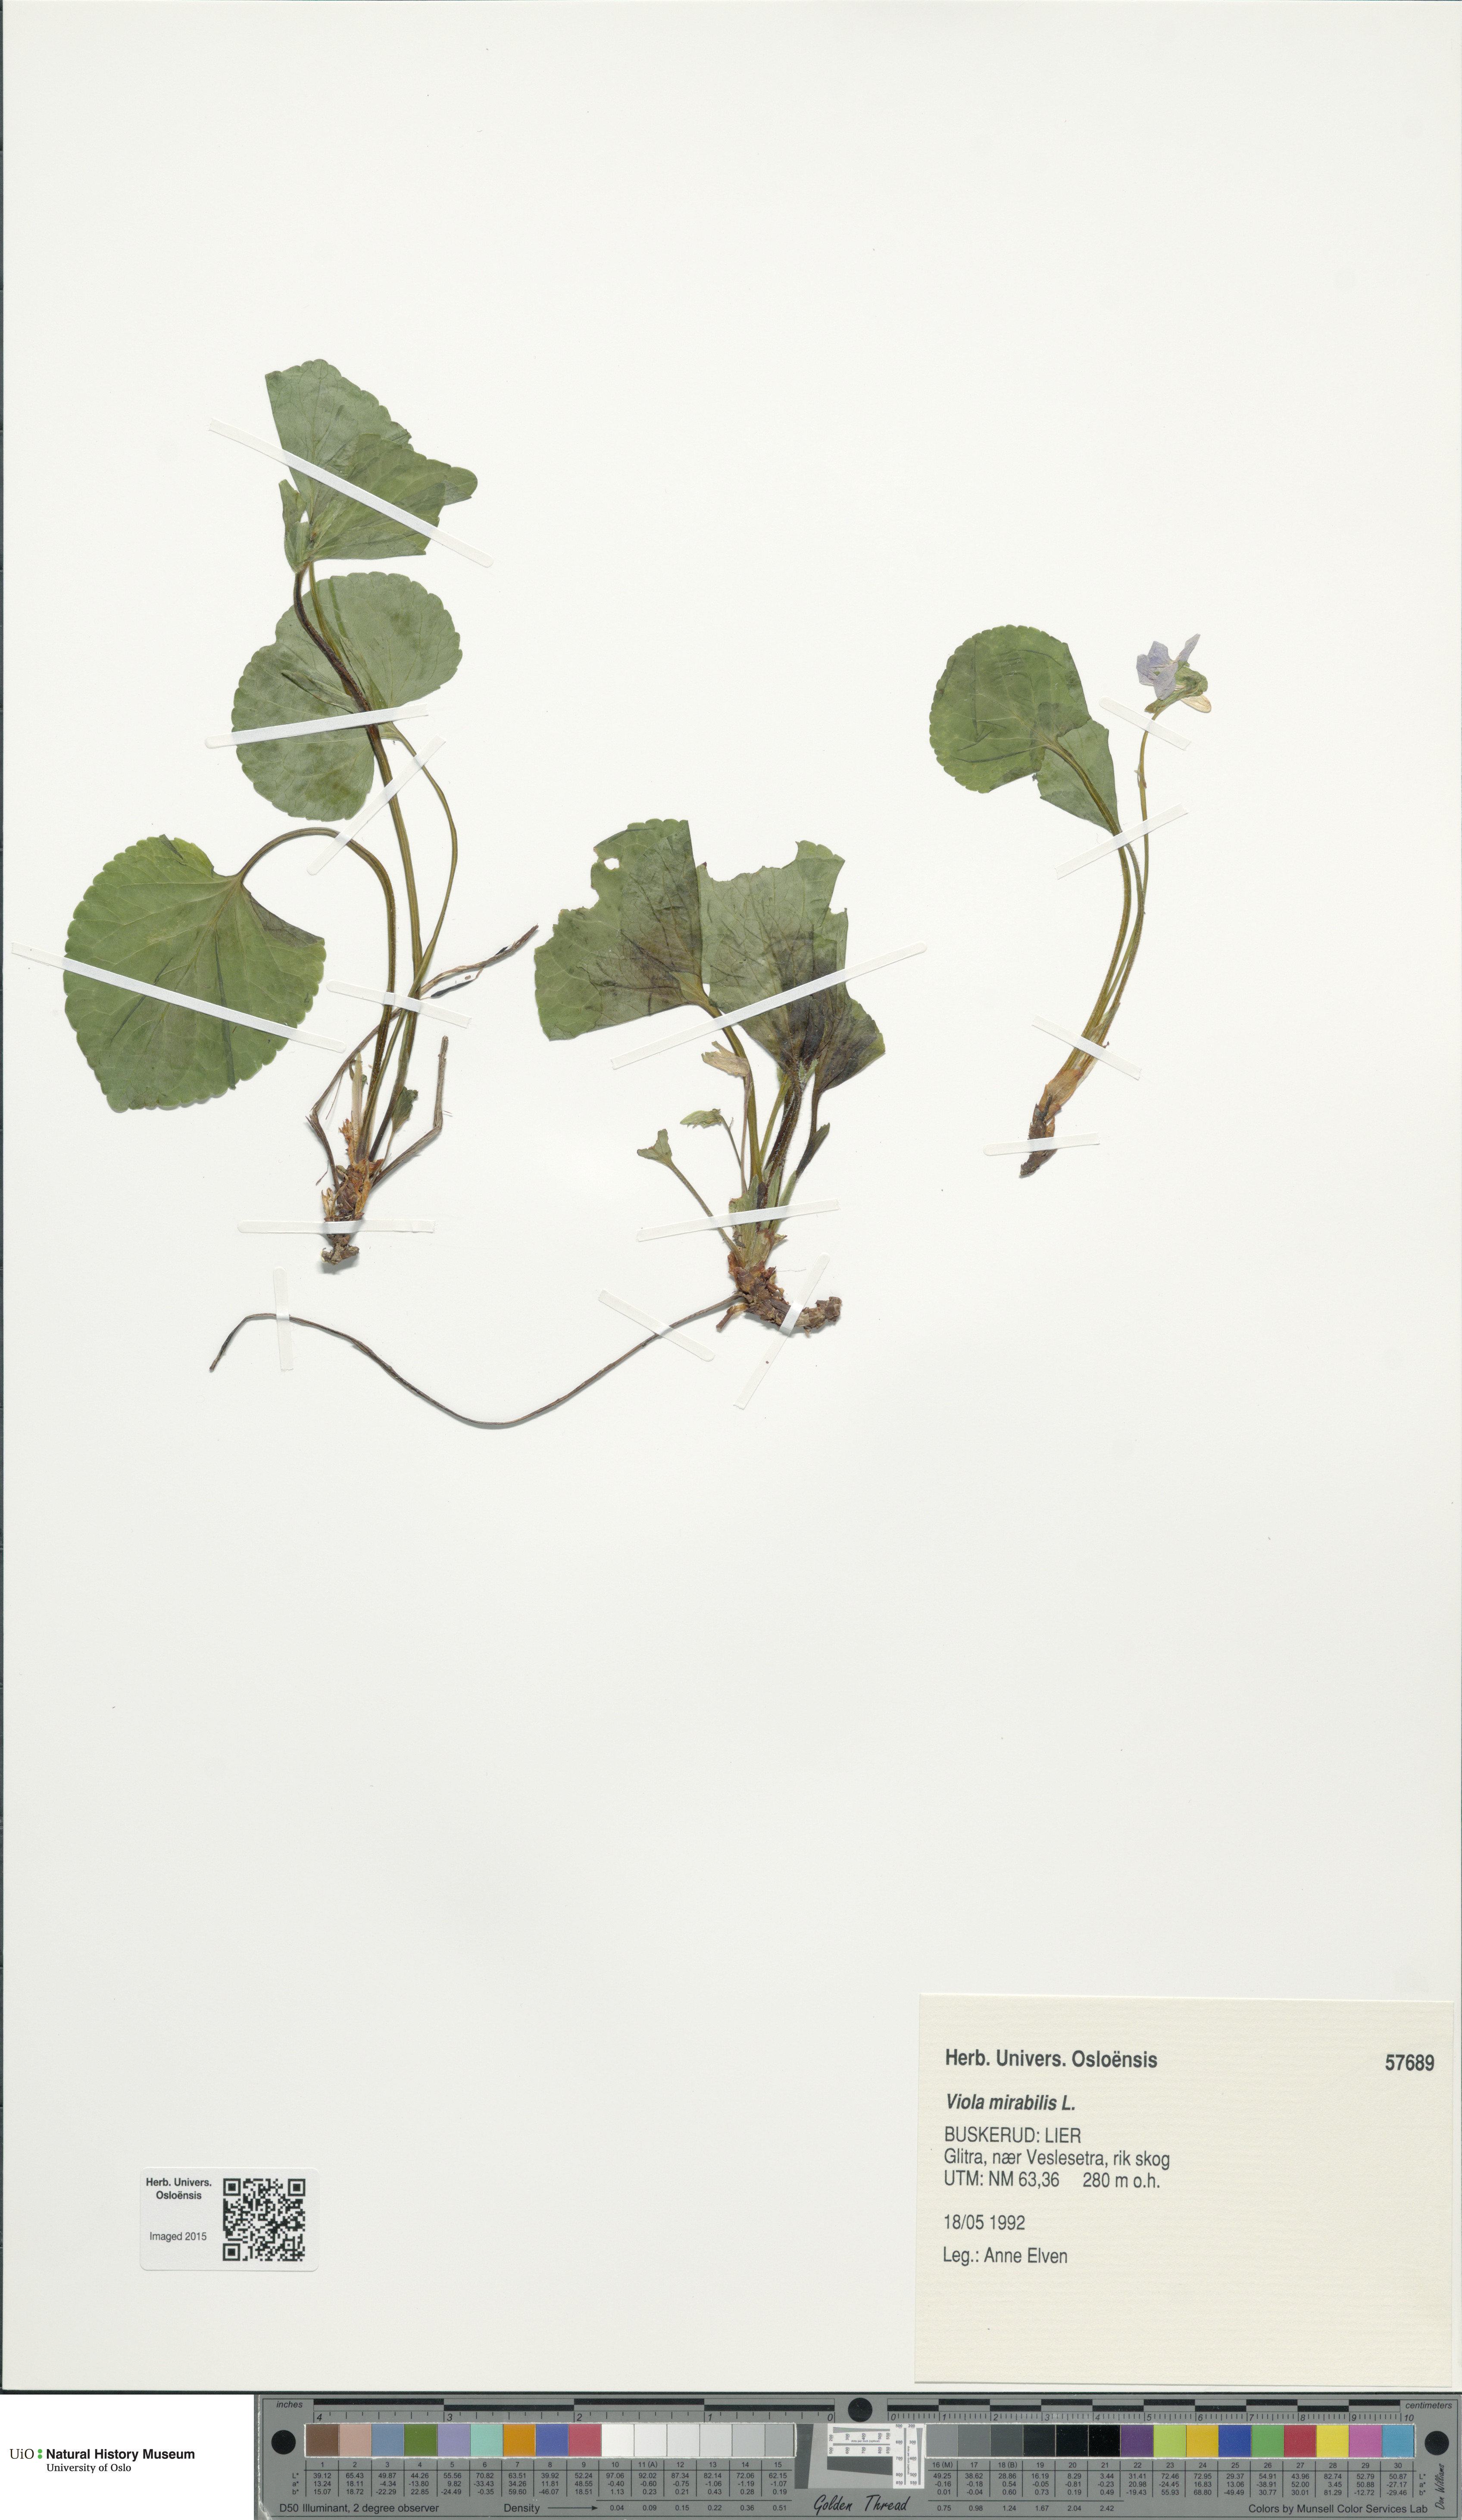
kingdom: Plantae
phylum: Tracheophyta
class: Magnoliopsida
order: Malpighiales
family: Violaceae
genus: Viola
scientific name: Viola mirabilis
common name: Wonder violet
